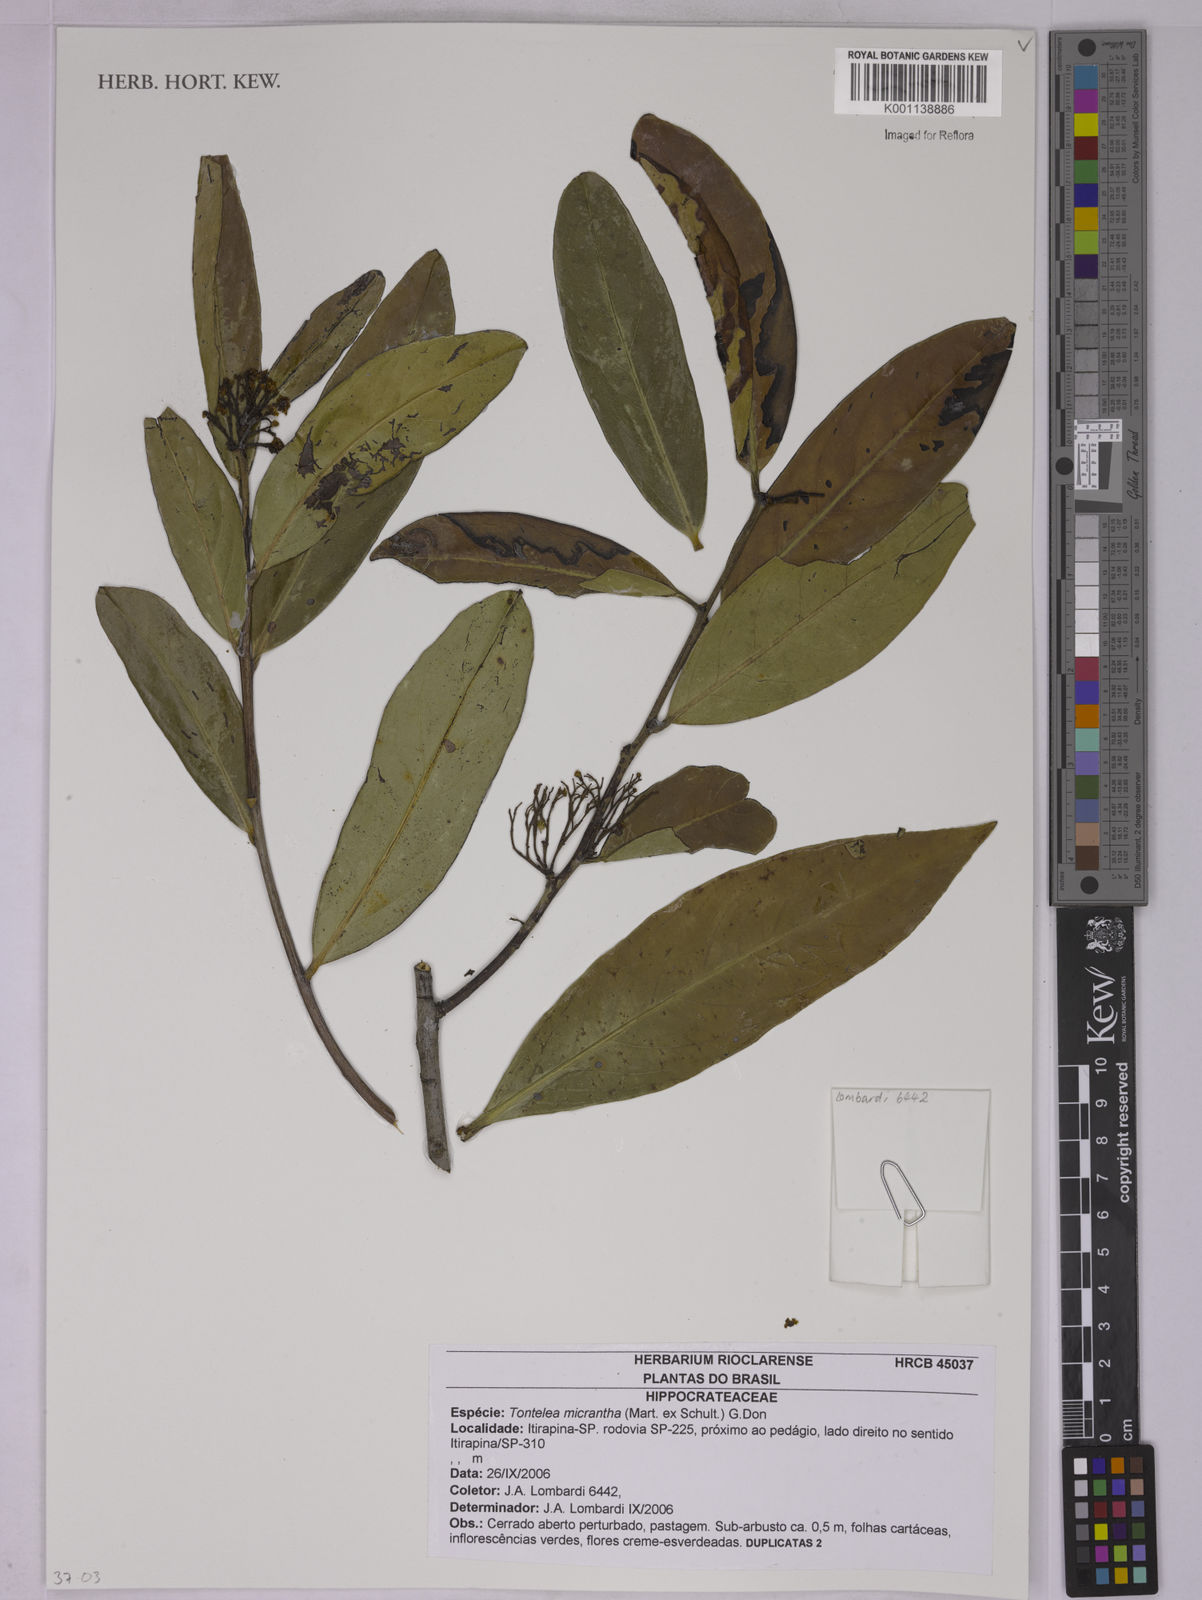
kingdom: Plantae
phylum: Tracheophyta
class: Magnoliopsida
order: Celastrales
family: Celastraceae
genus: Tontelea
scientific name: Tontelea micrantha
